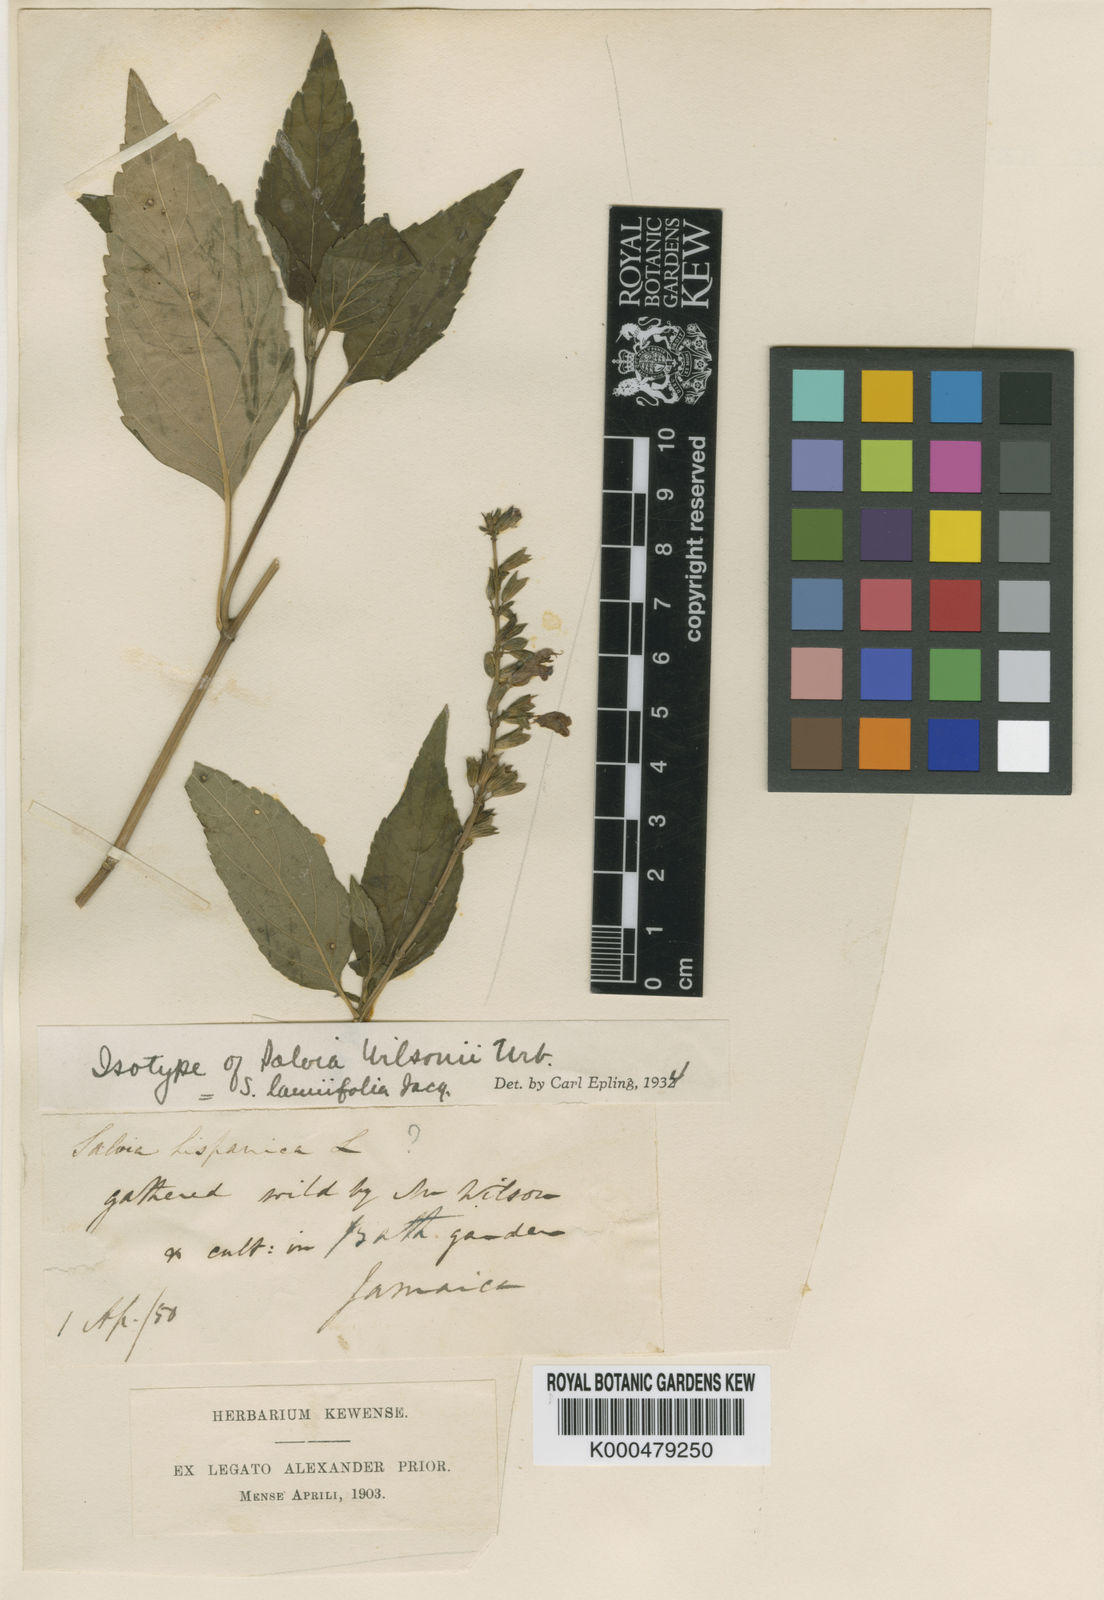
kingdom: Plantae
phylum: Tracheophyta
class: Magnoliopsida
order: Lamiales
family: Lamiaceae
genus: Salvia
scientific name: Salvia lamiifolia
